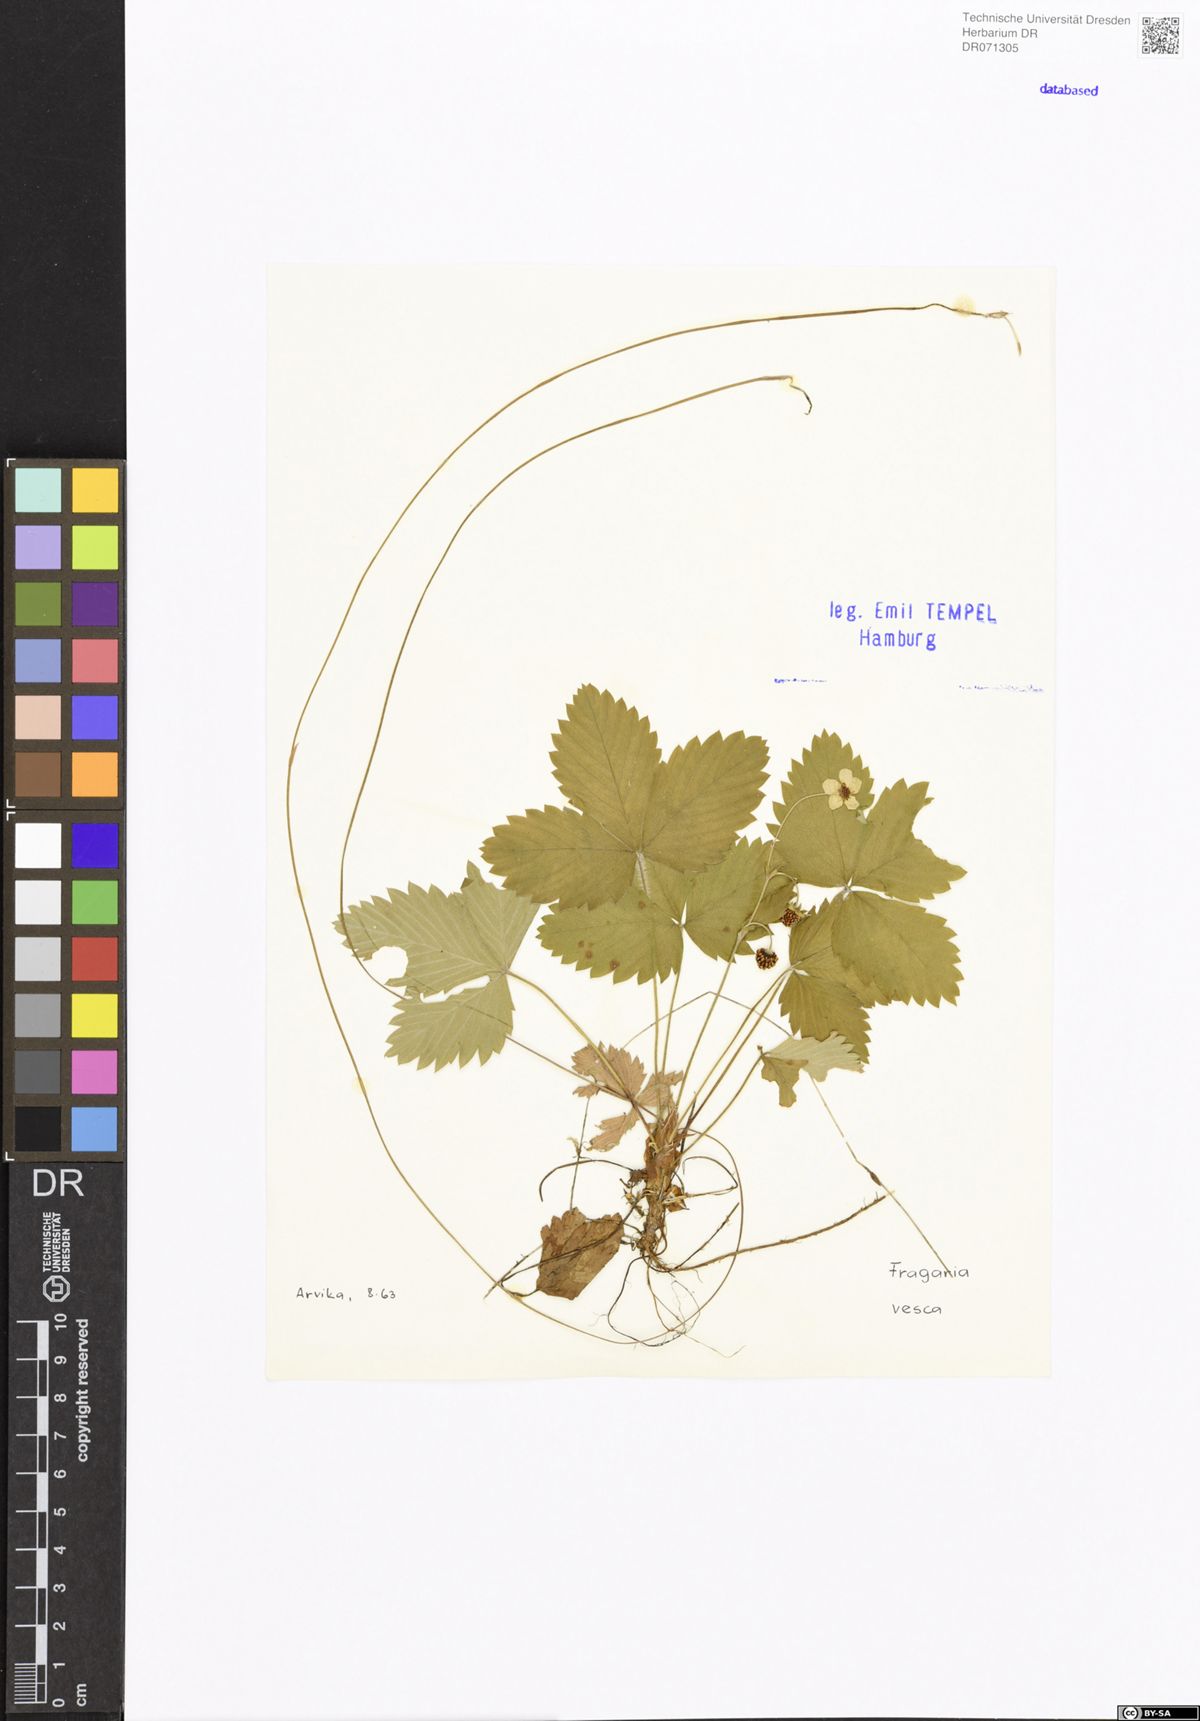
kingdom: Plantae
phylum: Tracheophyta
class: Magnoliopsida
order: Rosales
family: Rosaceae
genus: Fragaria
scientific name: Fragaria vesca
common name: Wild strawberry
